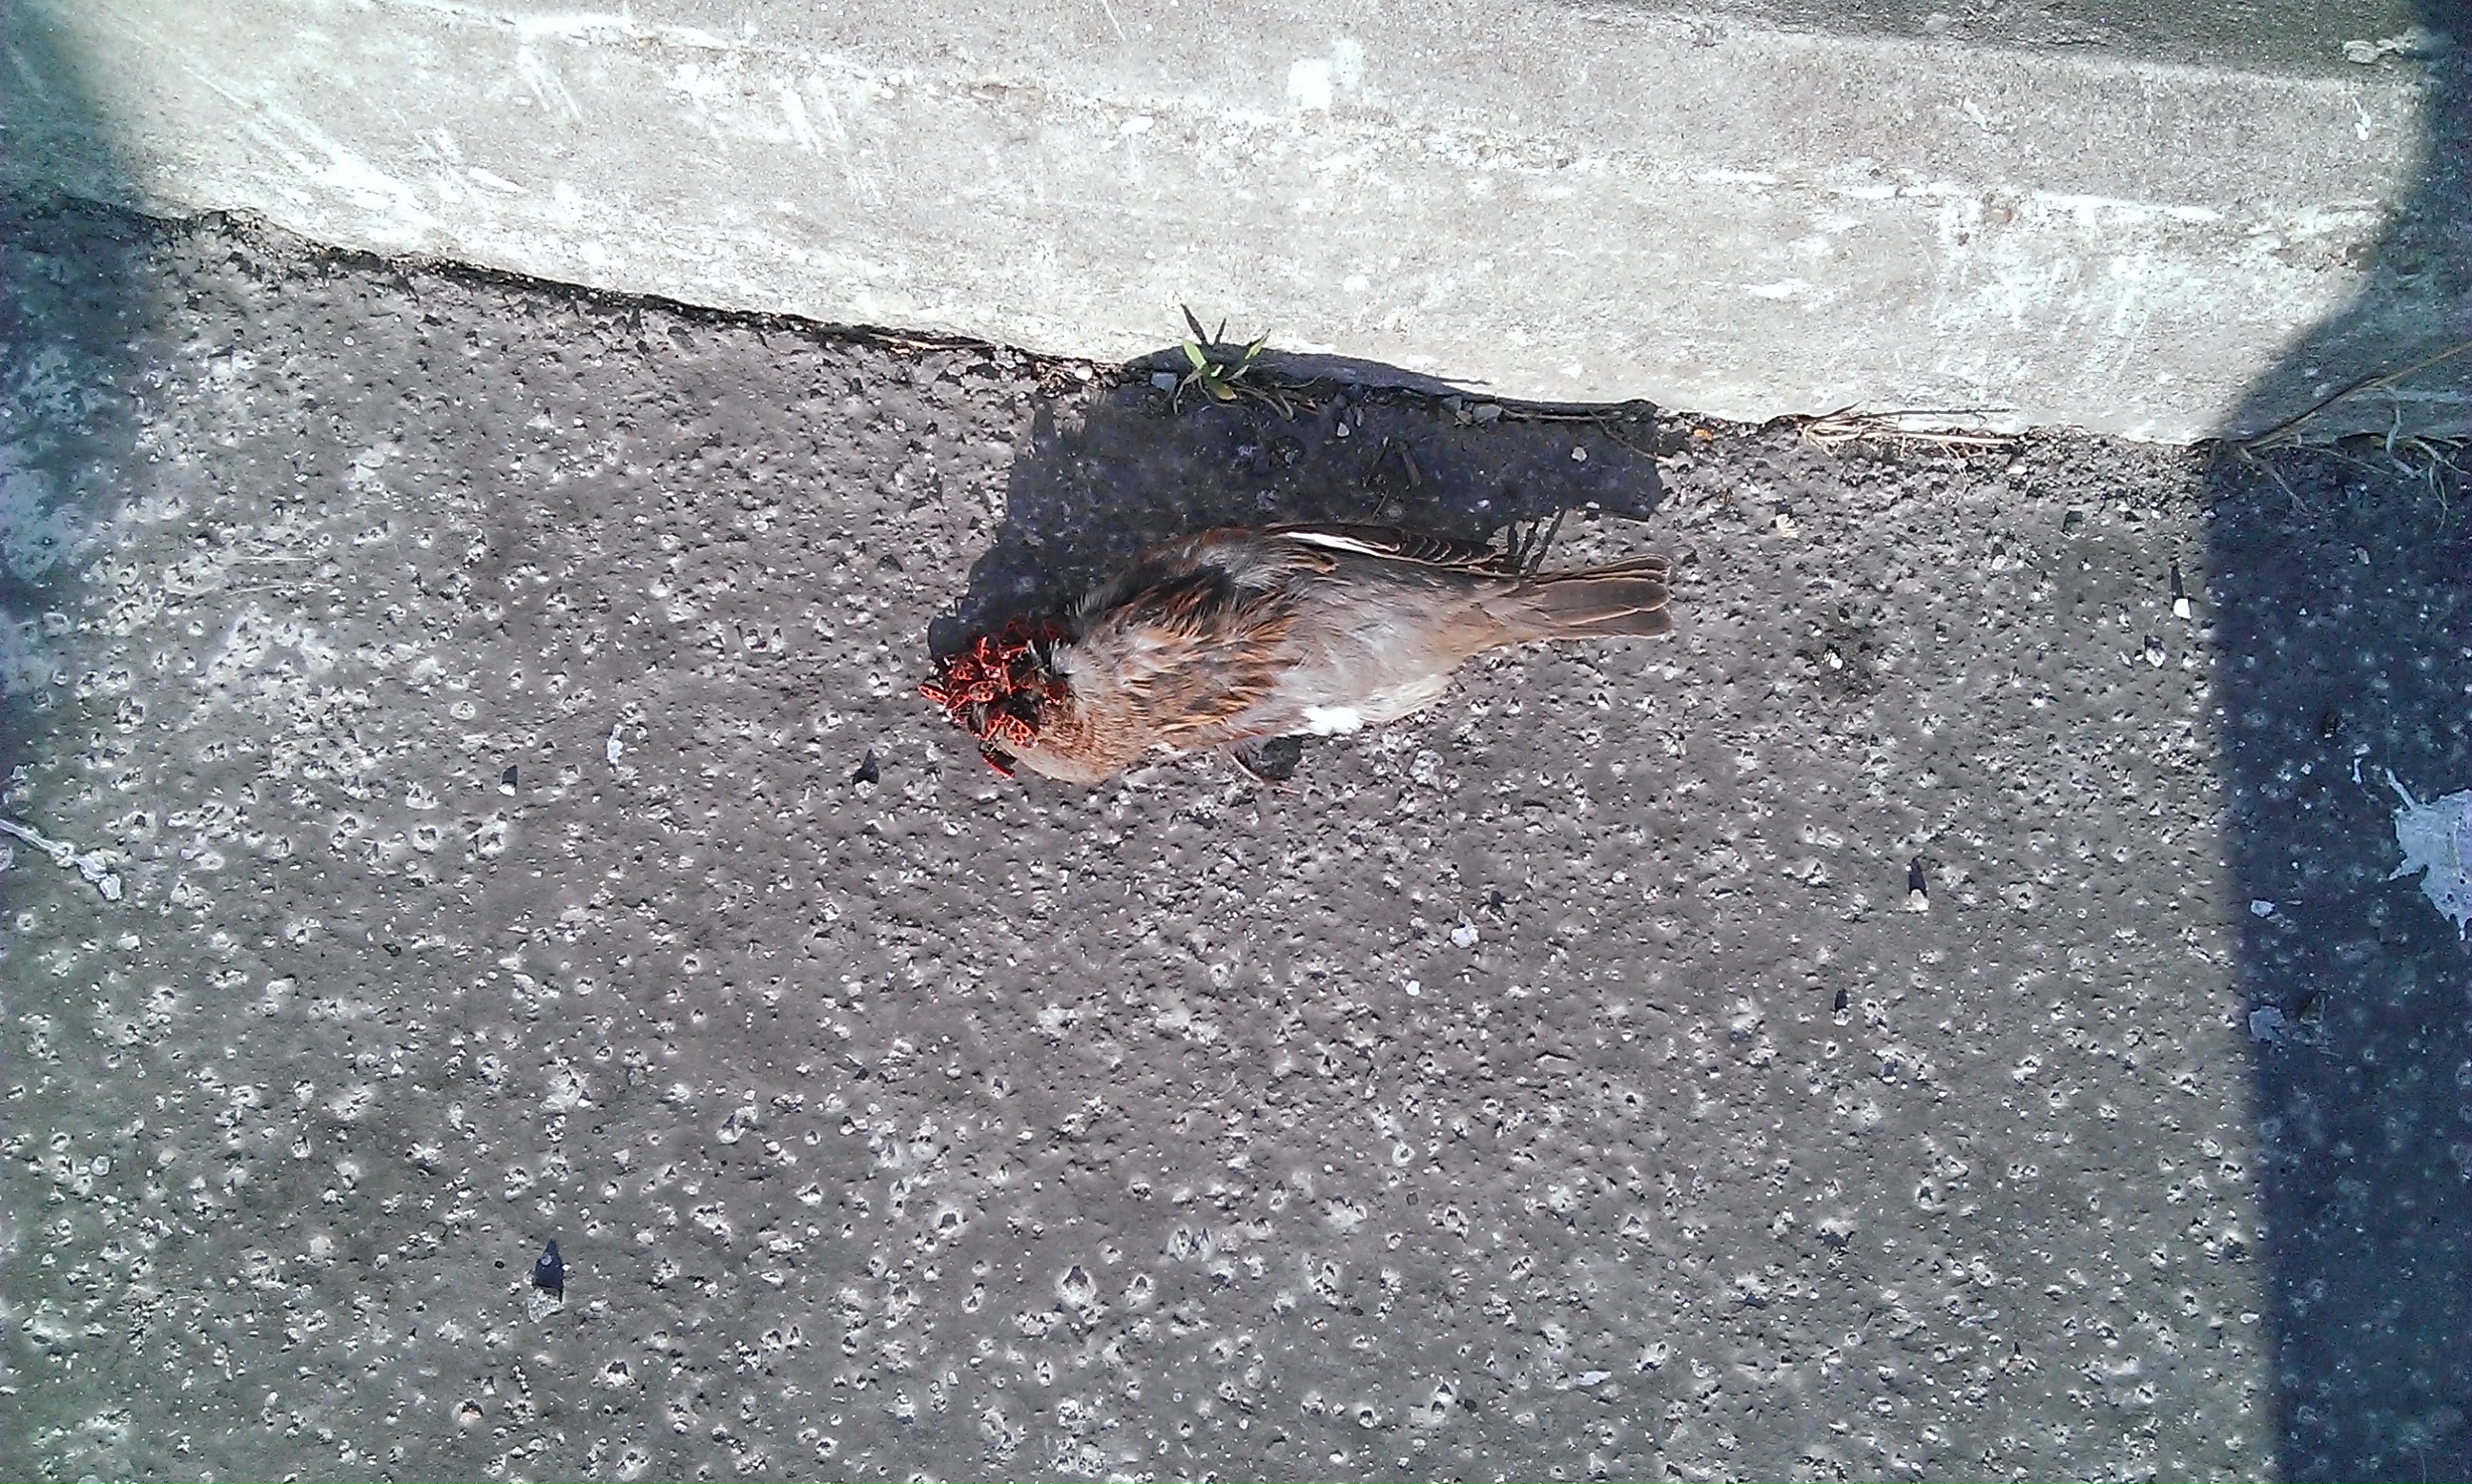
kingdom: Animalia
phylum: Chordata
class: Aves
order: Passeriformes
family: Passeridae
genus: Passer
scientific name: Passer domesticus
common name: House sparrow
